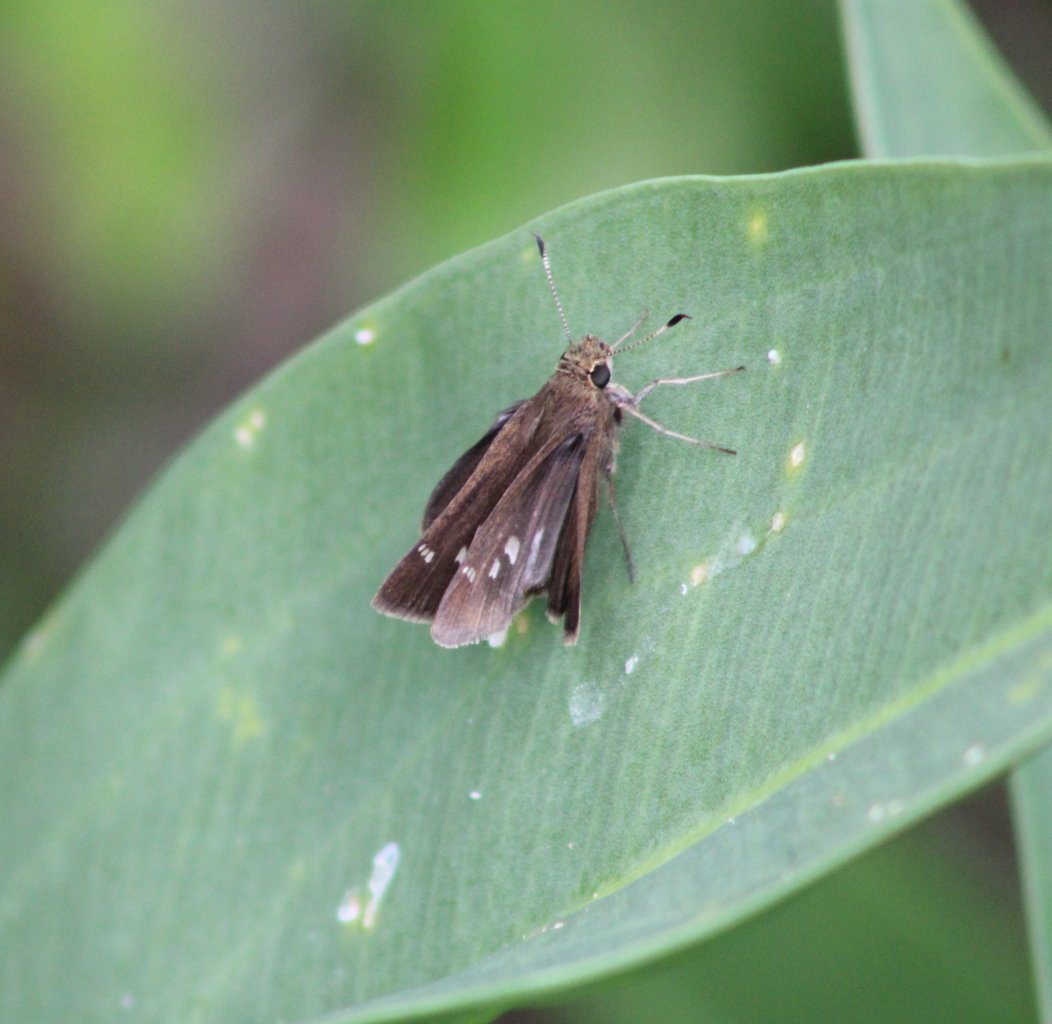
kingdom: Animalia
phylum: Arthropoda
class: Insecta
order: Lepidoptera
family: Hesperiidae
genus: Oligoria
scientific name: Oligoria maculata
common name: Twin-spot Skipper
